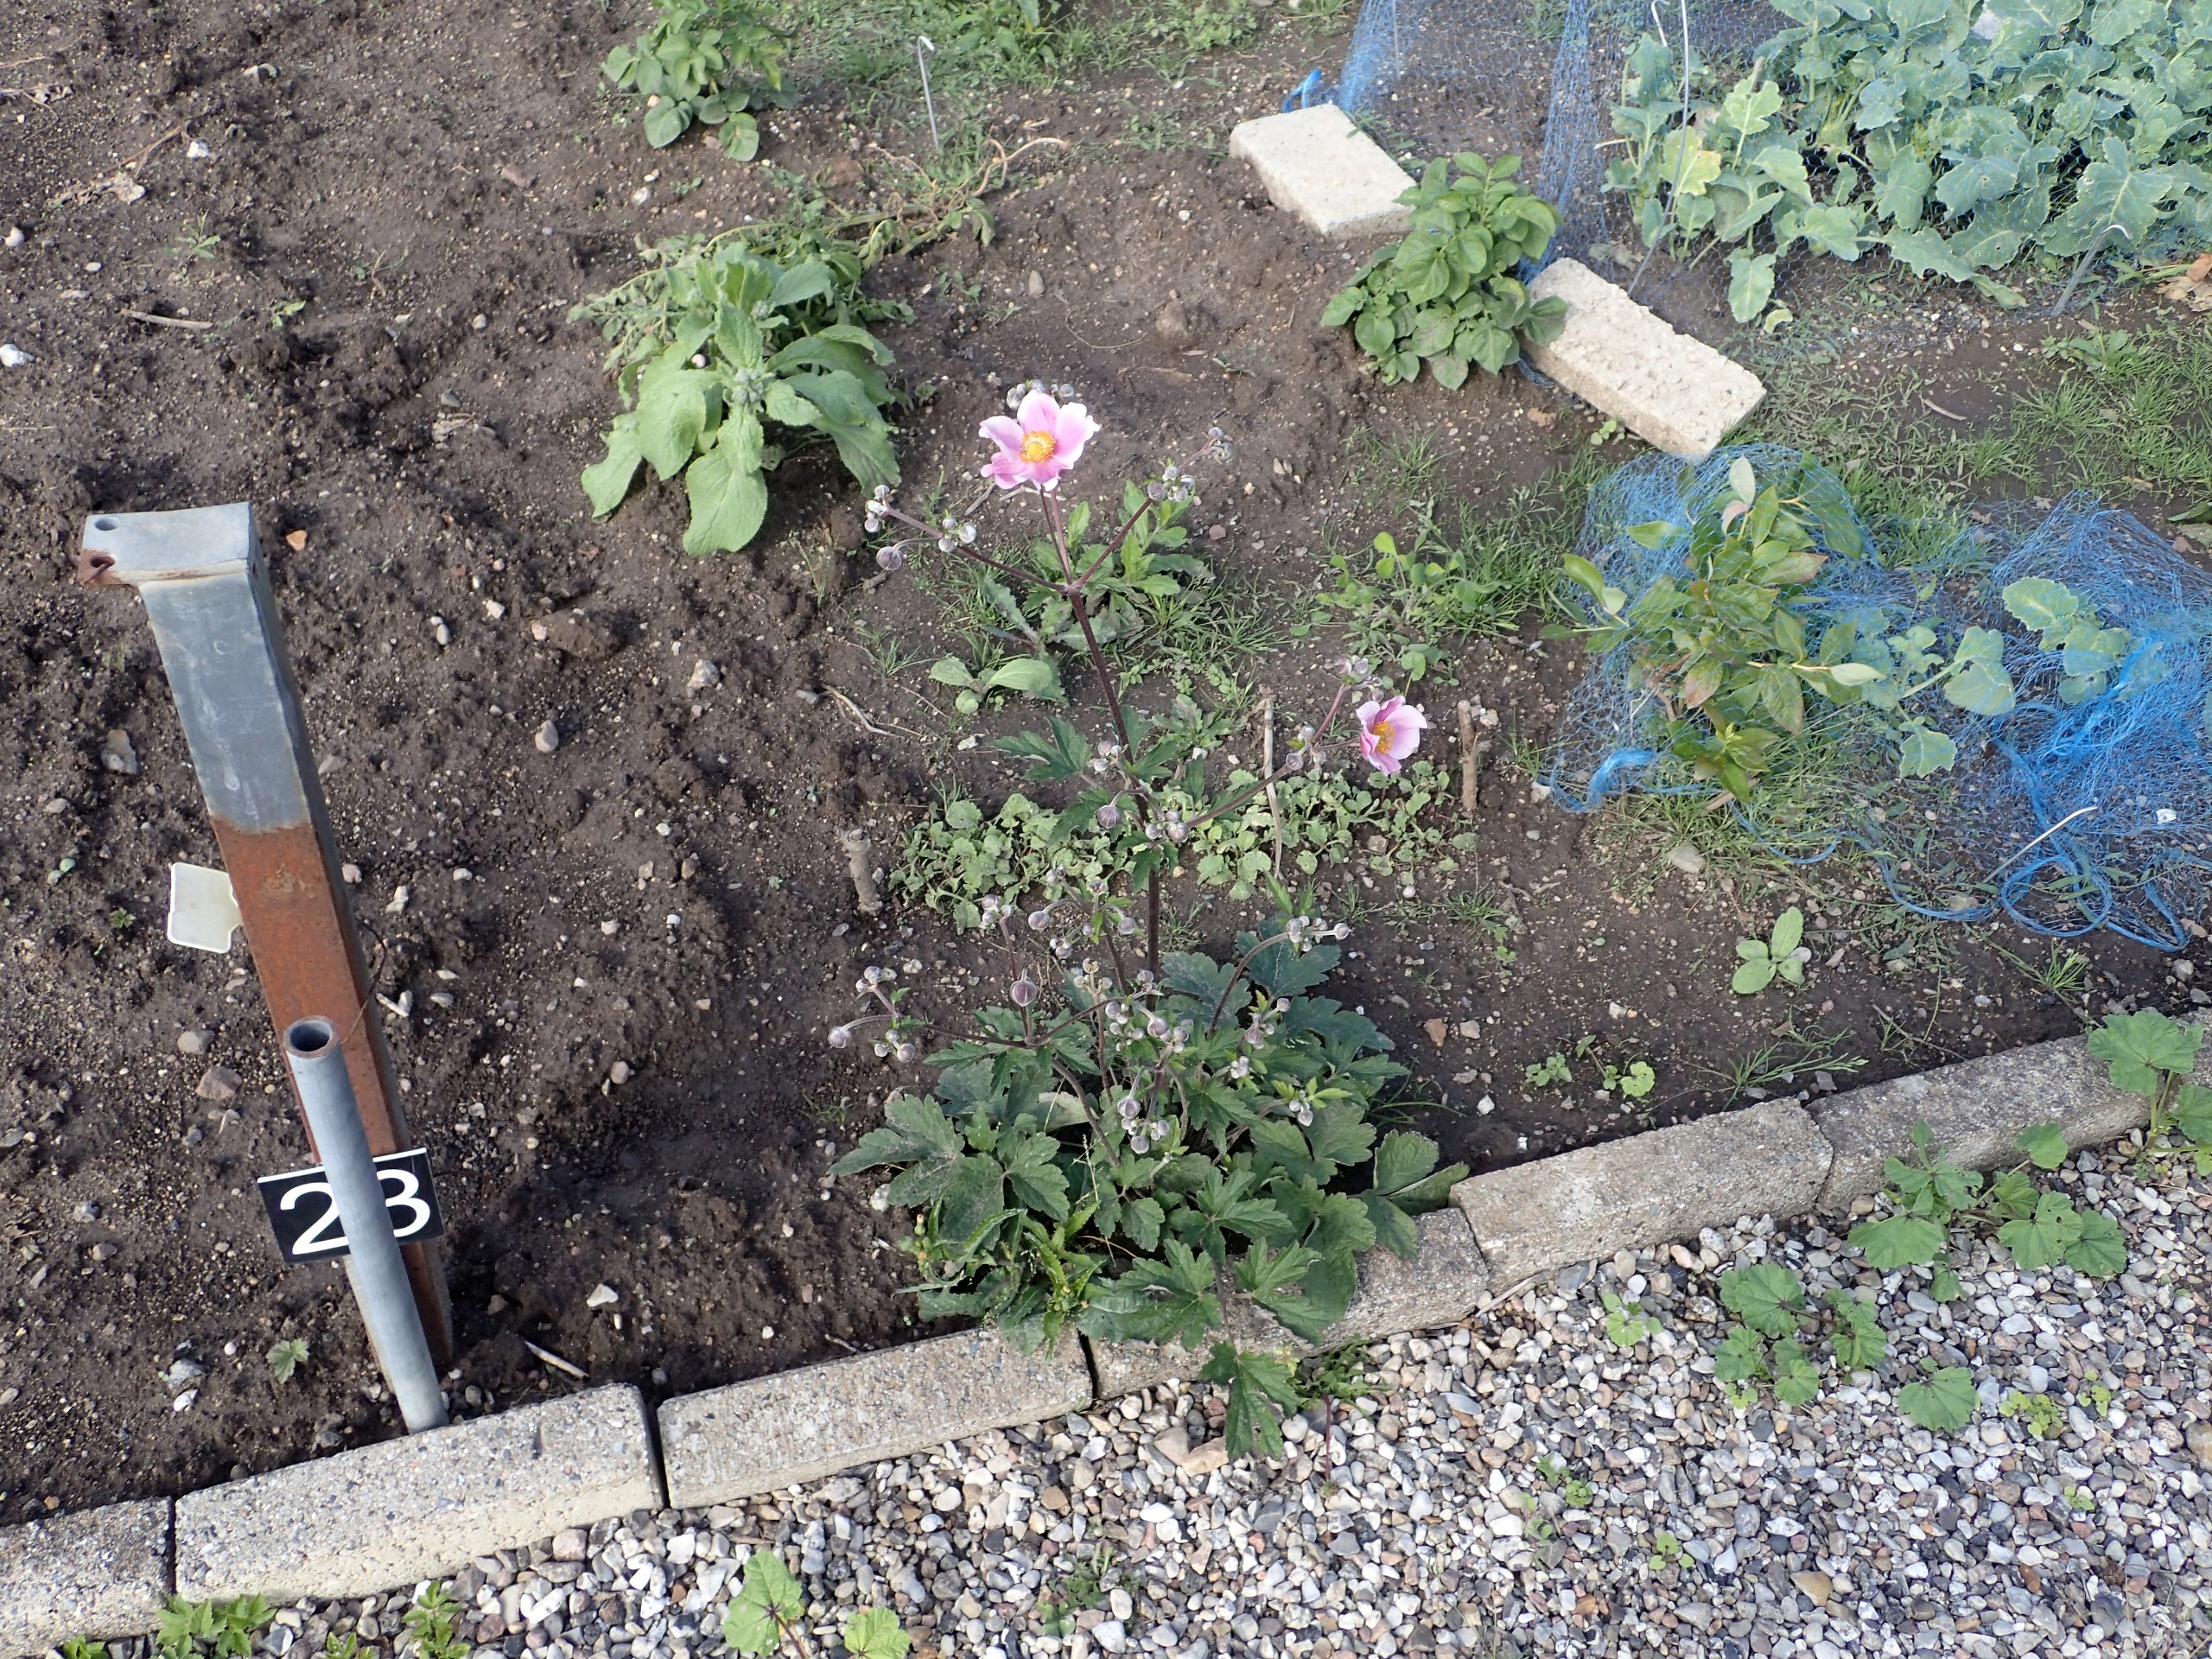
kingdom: Plantae
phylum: Tracheophyta
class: Magnoliopsida
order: Ranunculales
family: Ranunculaceae
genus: Eriocapitella
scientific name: Eriocapitella hupehensis
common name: Høst-anemone
